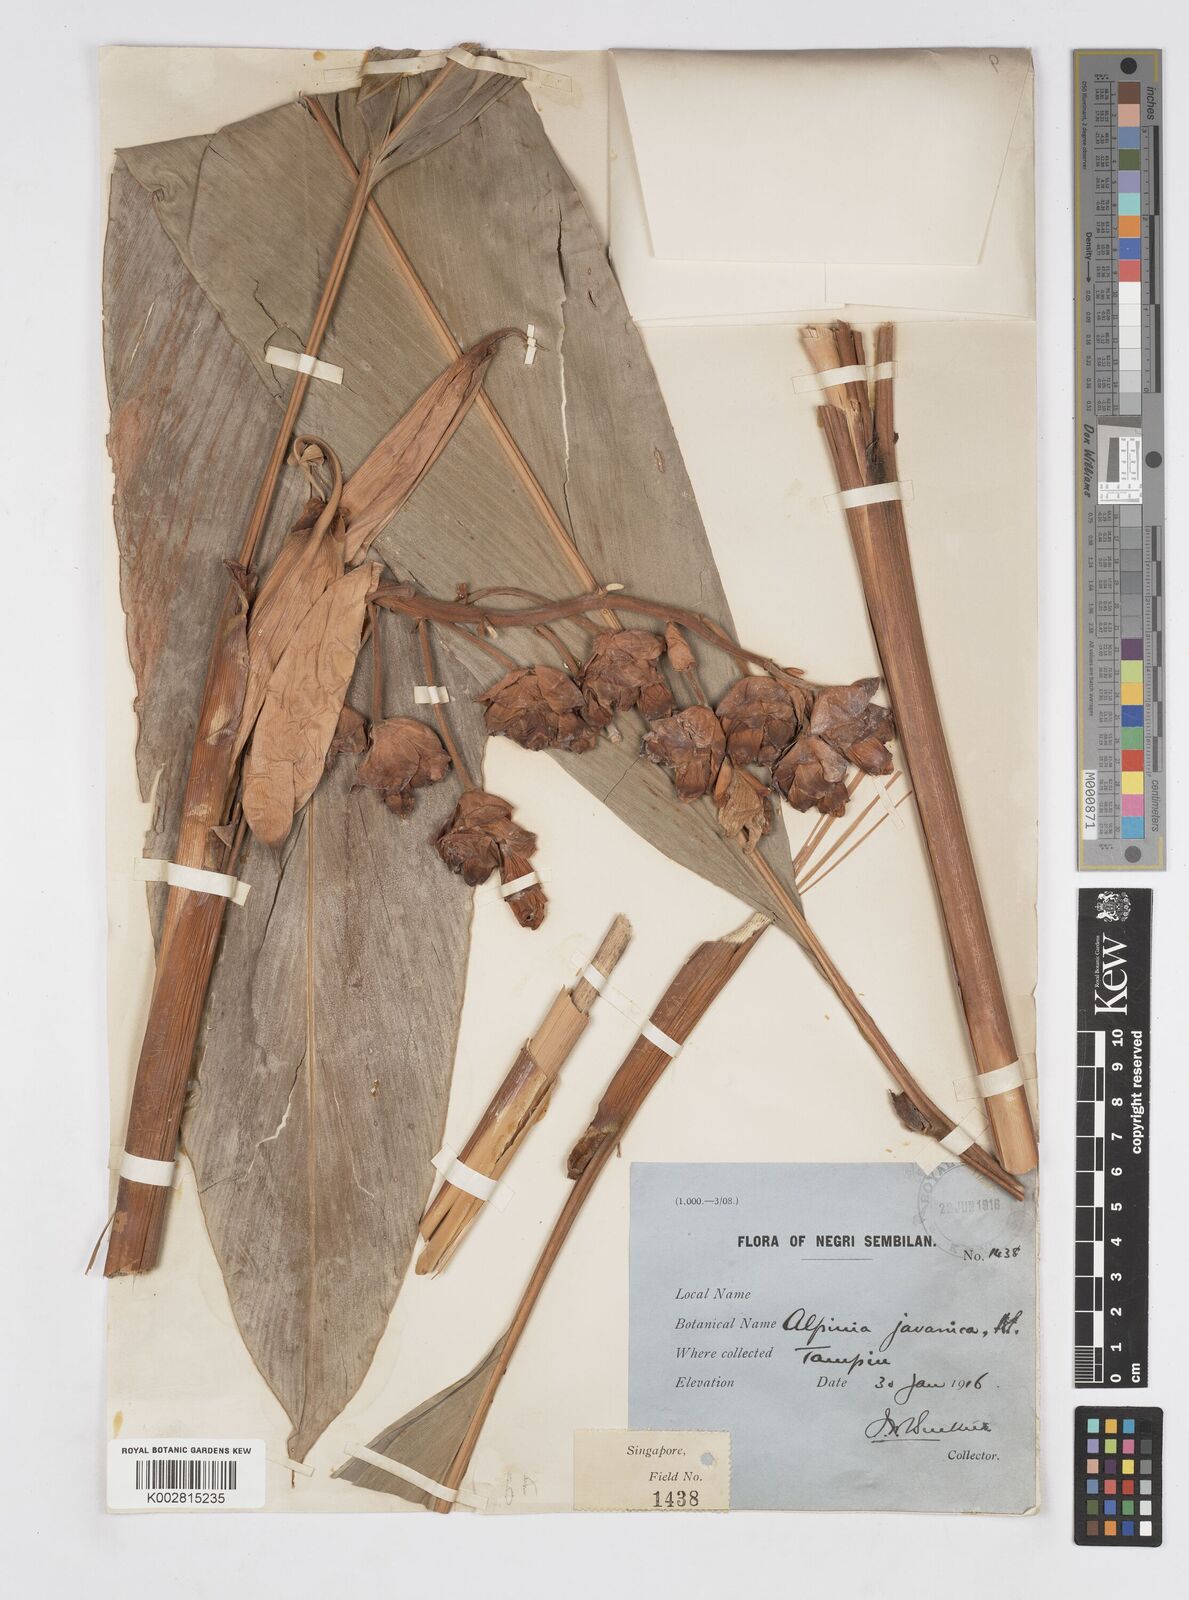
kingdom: Plantae
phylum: Tracheophyta
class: Liliopsida
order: Zingiberales
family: Zingiberaceae
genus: Alpinia
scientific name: Alpinia javanica
